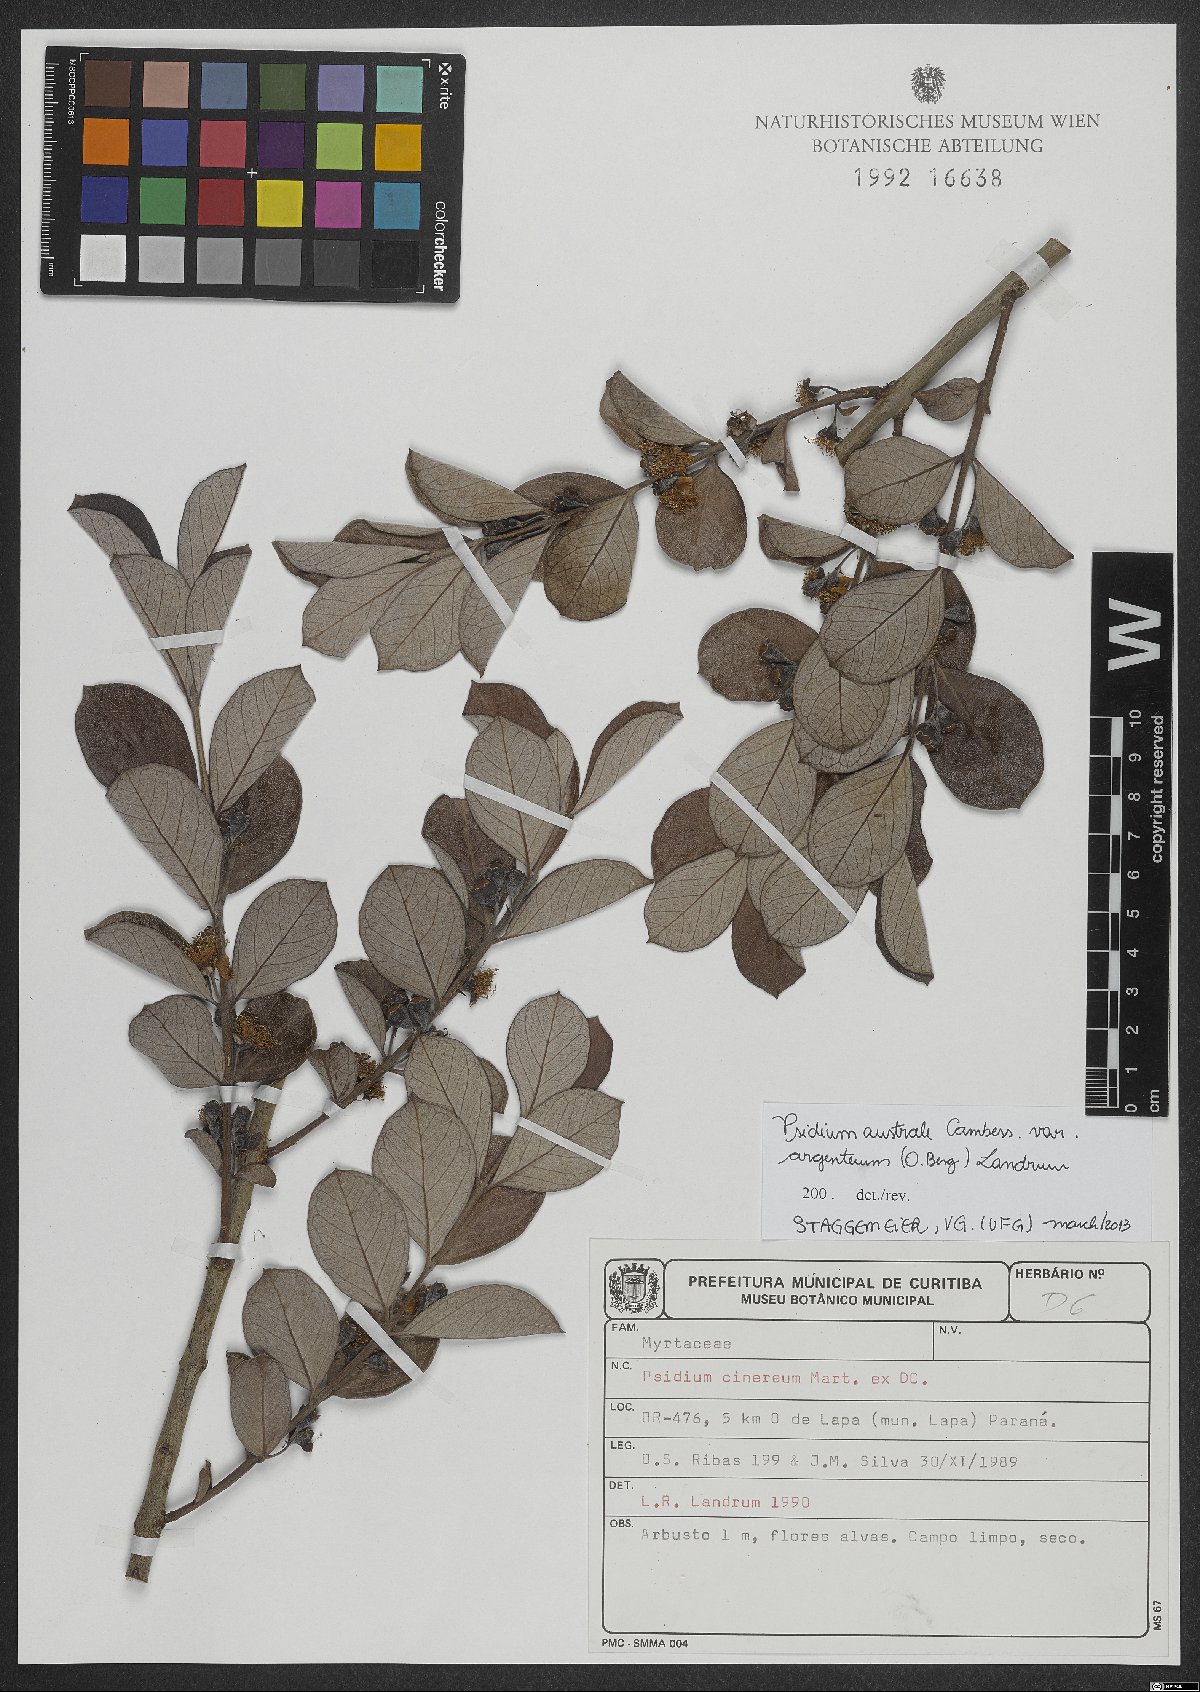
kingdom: Plantae
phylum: Tracheophyta
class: Magnoliopsida
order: Myrtales
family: Myrtaceae
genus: Psidium
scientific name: Psidium australe
